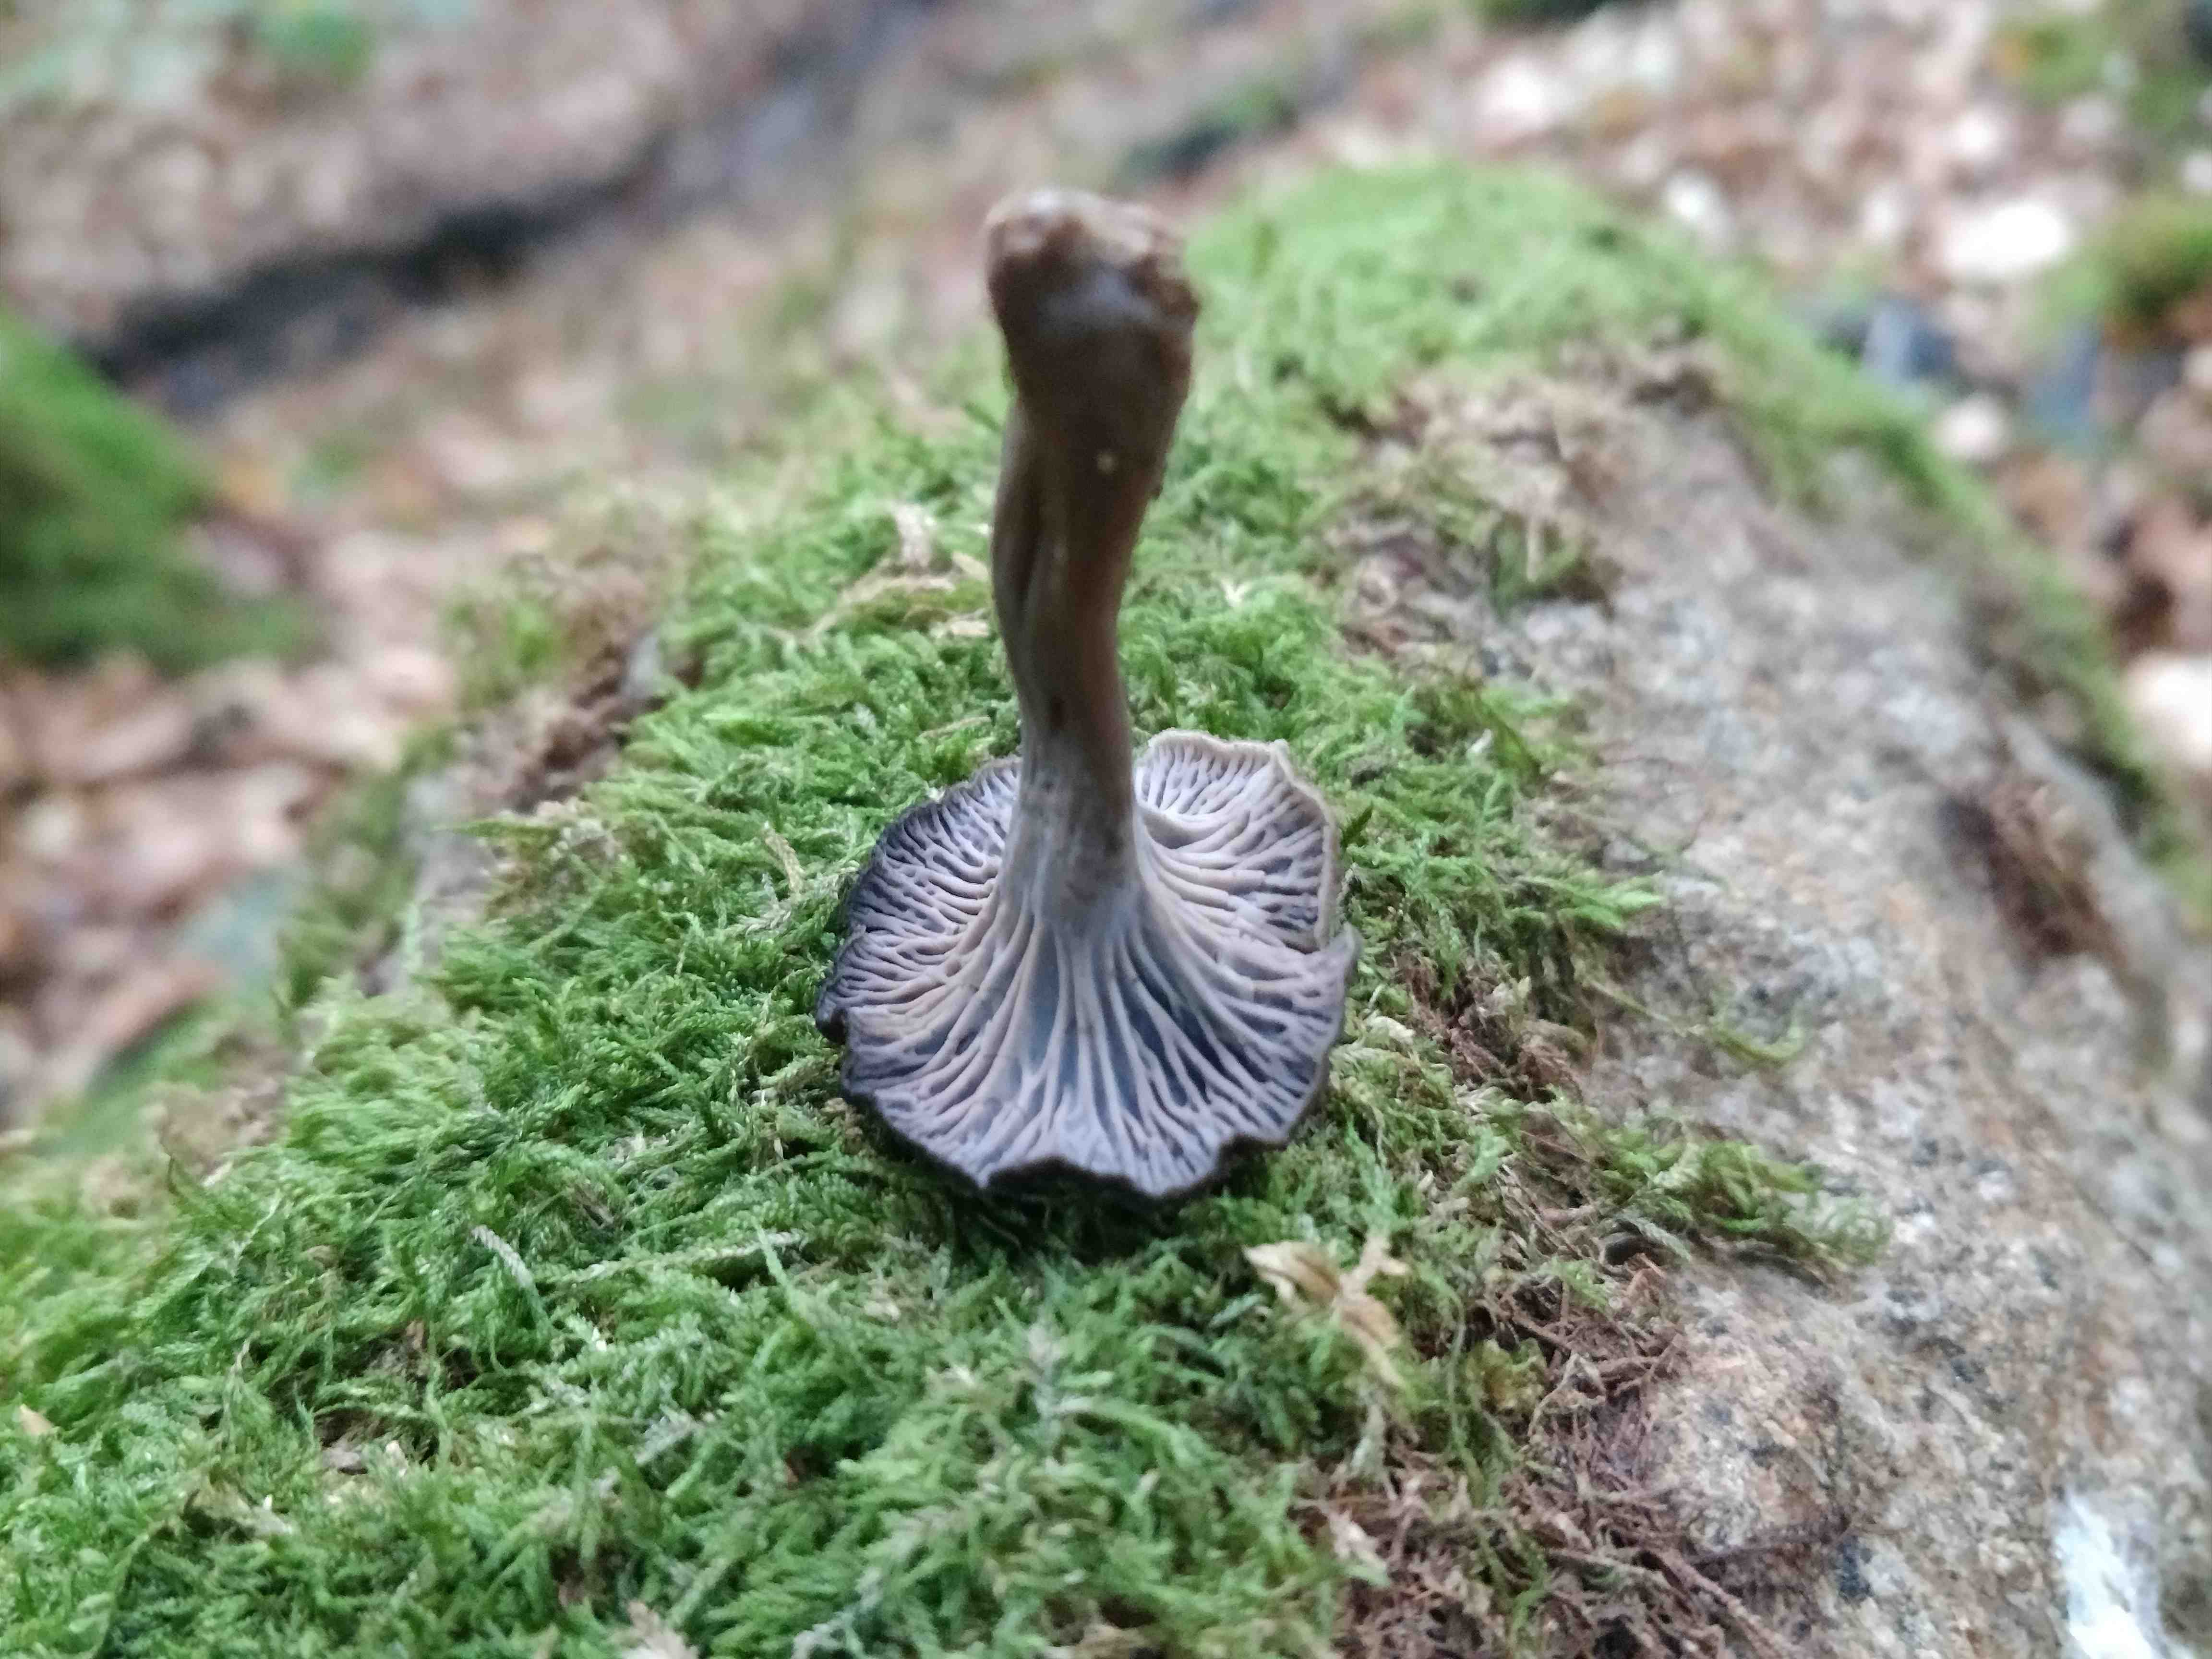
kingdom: Fungi
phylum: Basidiomycota
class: Agaricomycetes
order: Cantharellales
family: Hydnaceae
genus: Cantharellus
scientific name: Cantharellus cinereus
